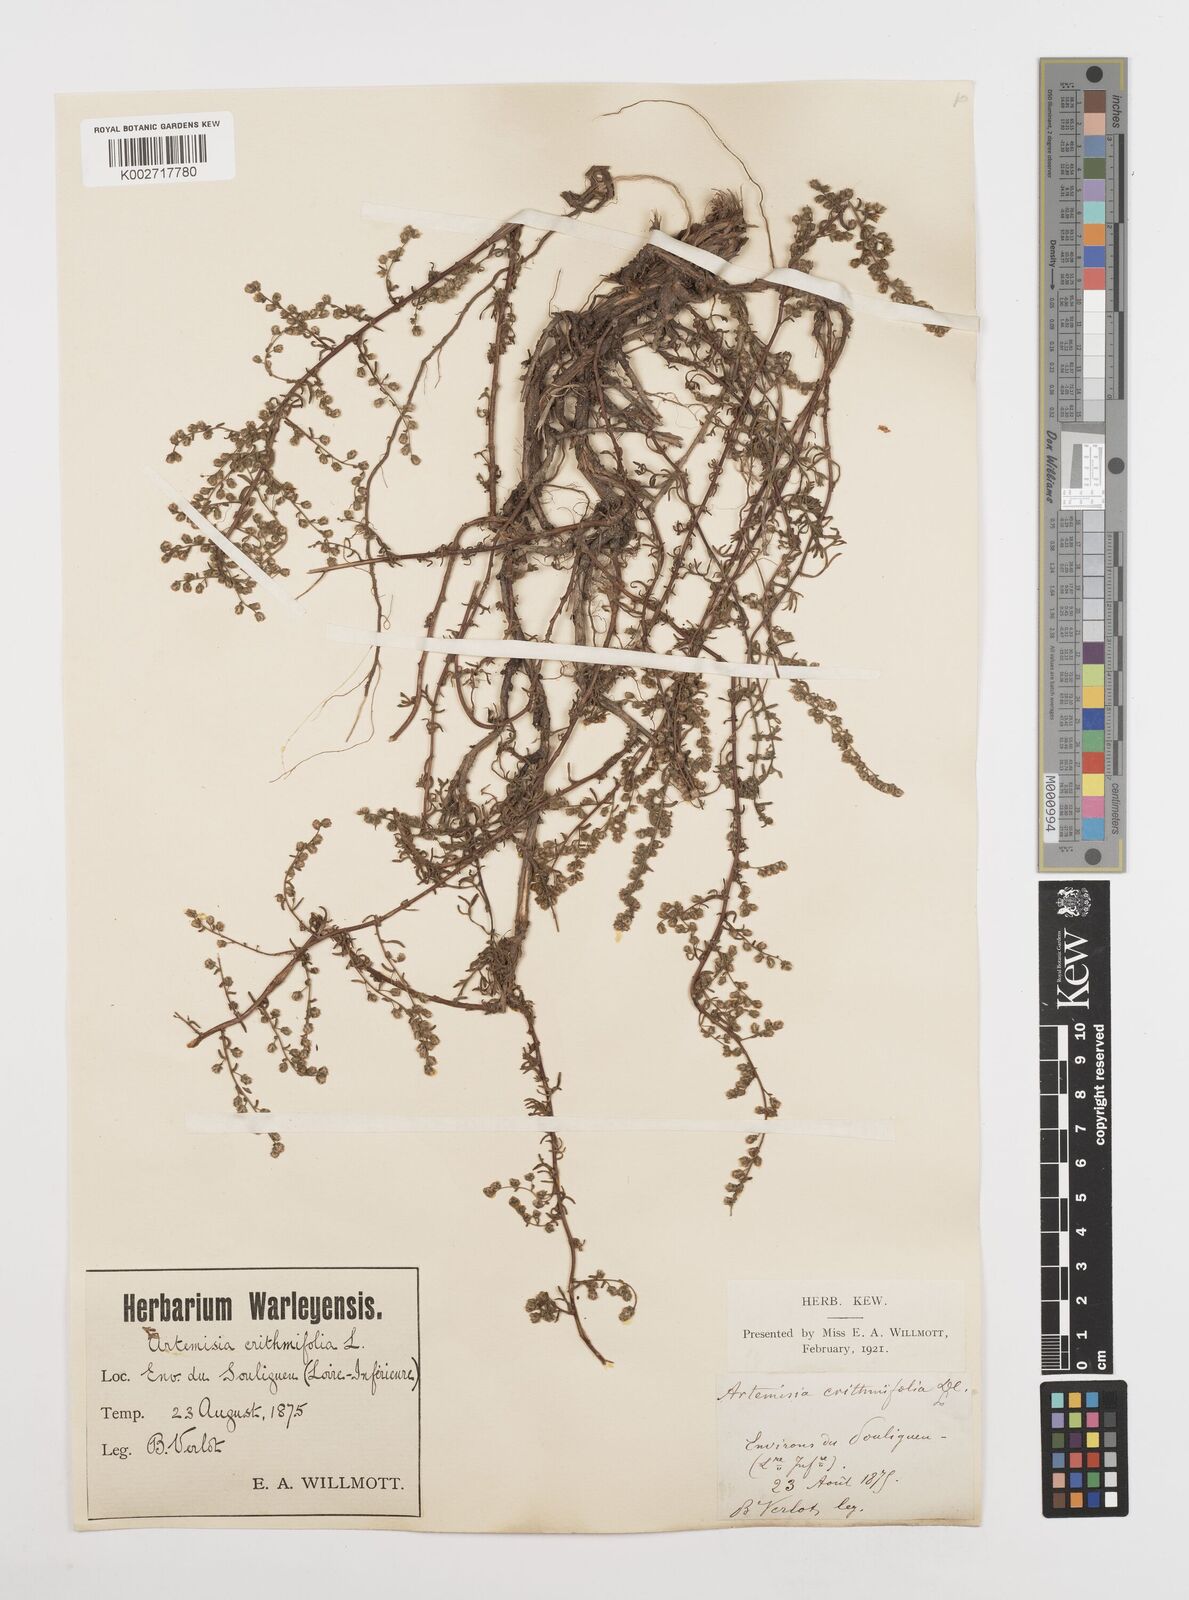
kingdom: Plantae
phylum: Tracheophyta
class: Magnoliopsida
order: Asterales
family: Asteraceae
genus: Artemisia
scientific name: Artemisia campestris
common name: Field wormwood
